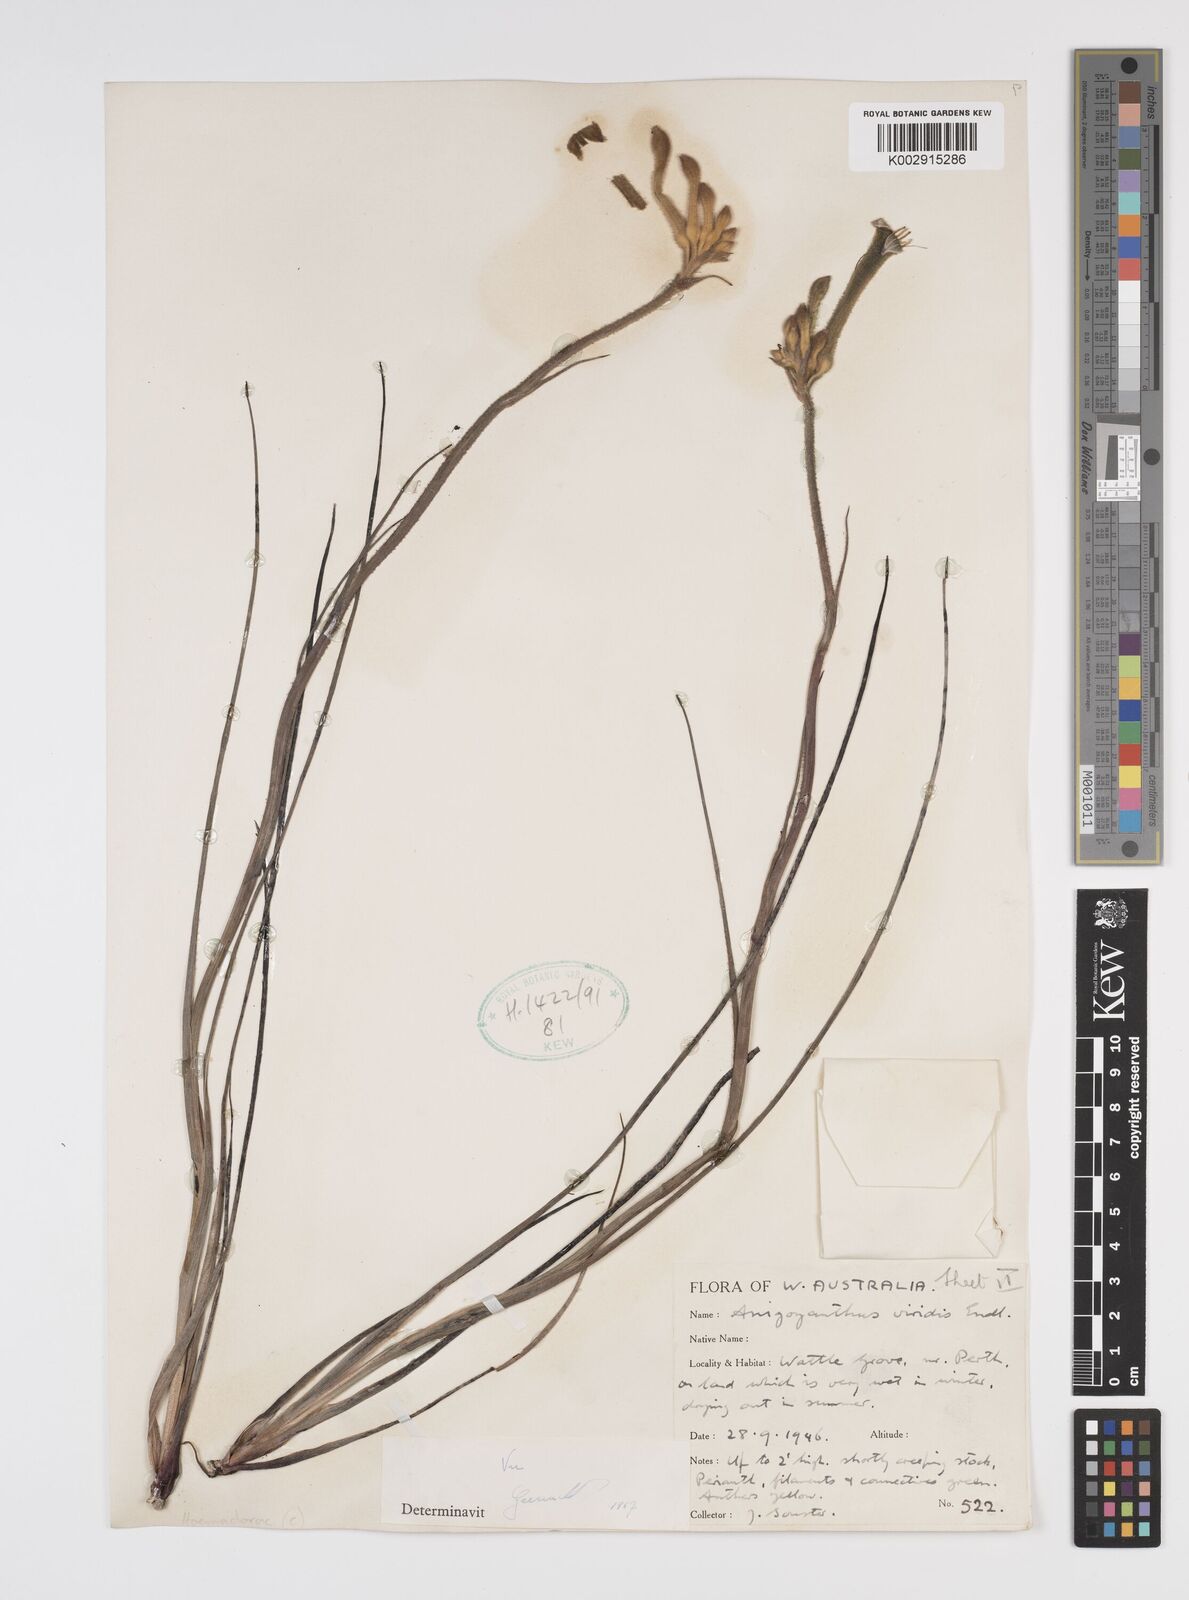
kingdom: Plantae
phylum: Tracheophyta
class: Liliopsida
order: Commelinales
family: Haemodoraceae
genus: Anigozanthos
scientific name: Anigozanthos viridis
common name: Green kangaroo-paw
